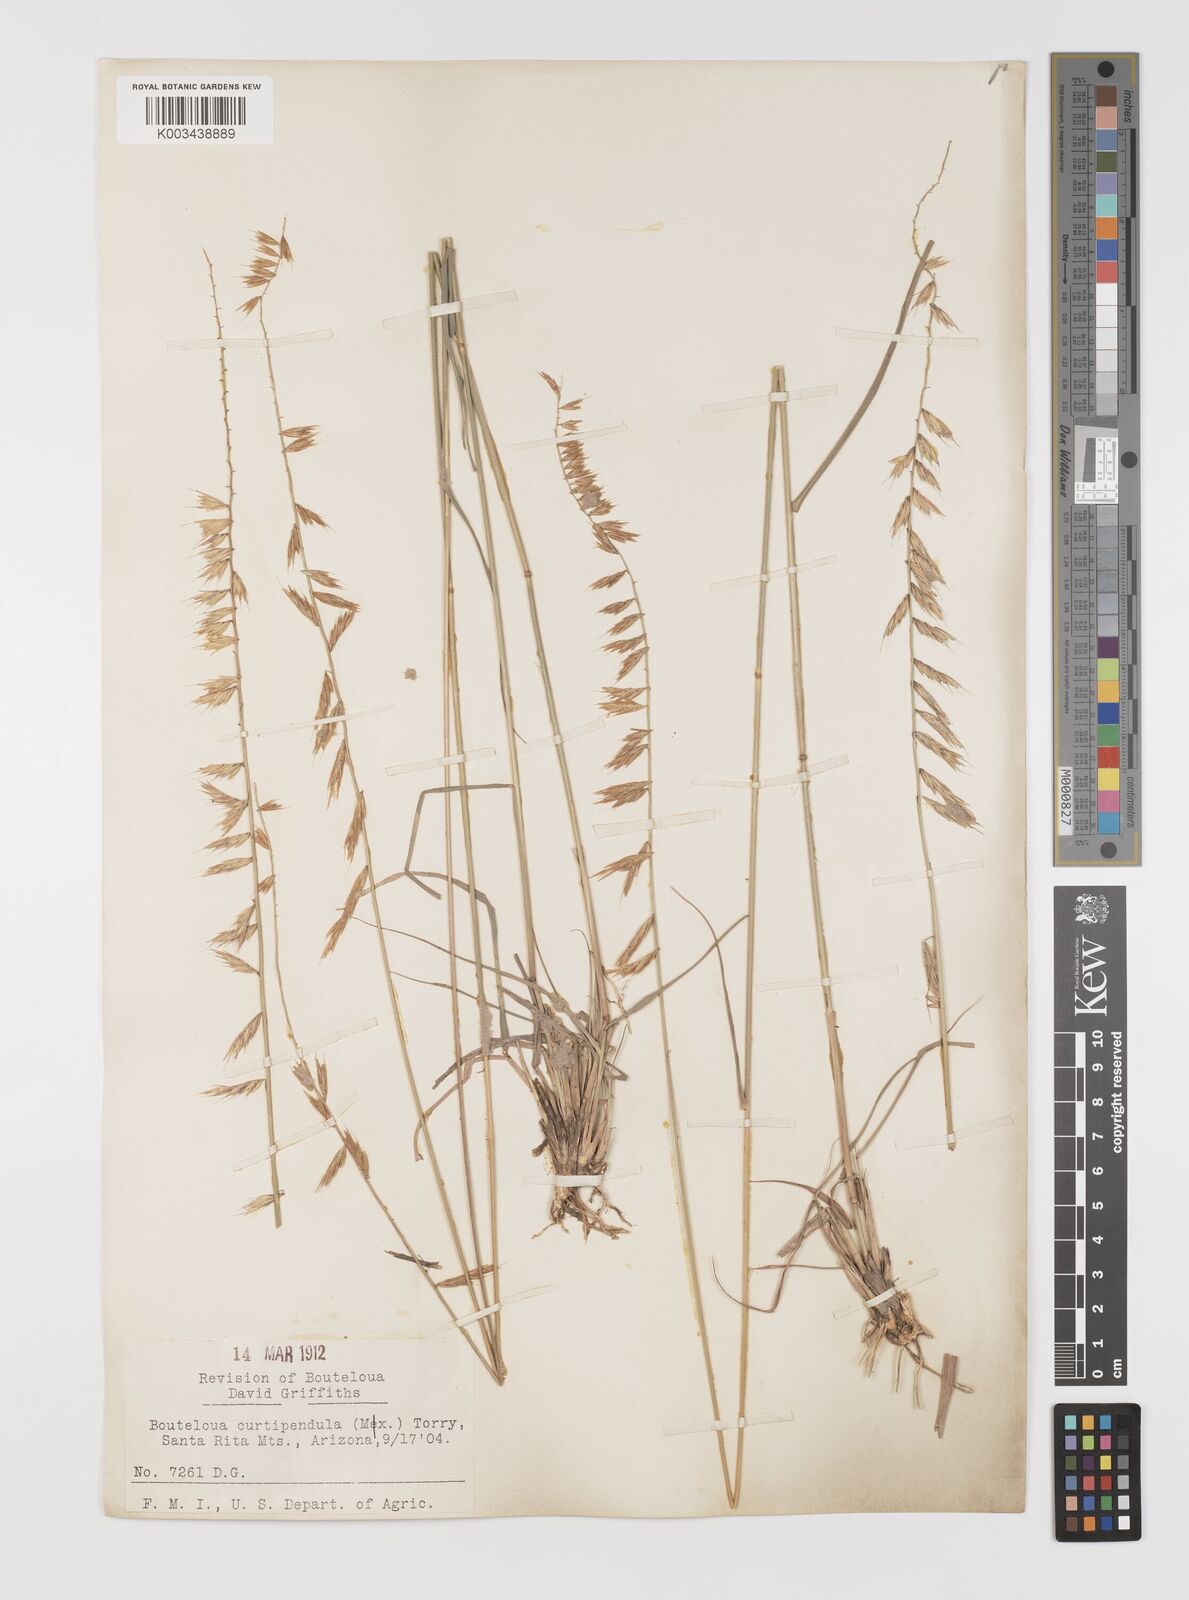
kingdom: Plantae
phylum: Tracheophyta
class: Liliopsida
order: Poales
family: Poaceae
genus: Bouteloua
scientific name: Bouteloua curtipendula
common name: Side-oats grama
